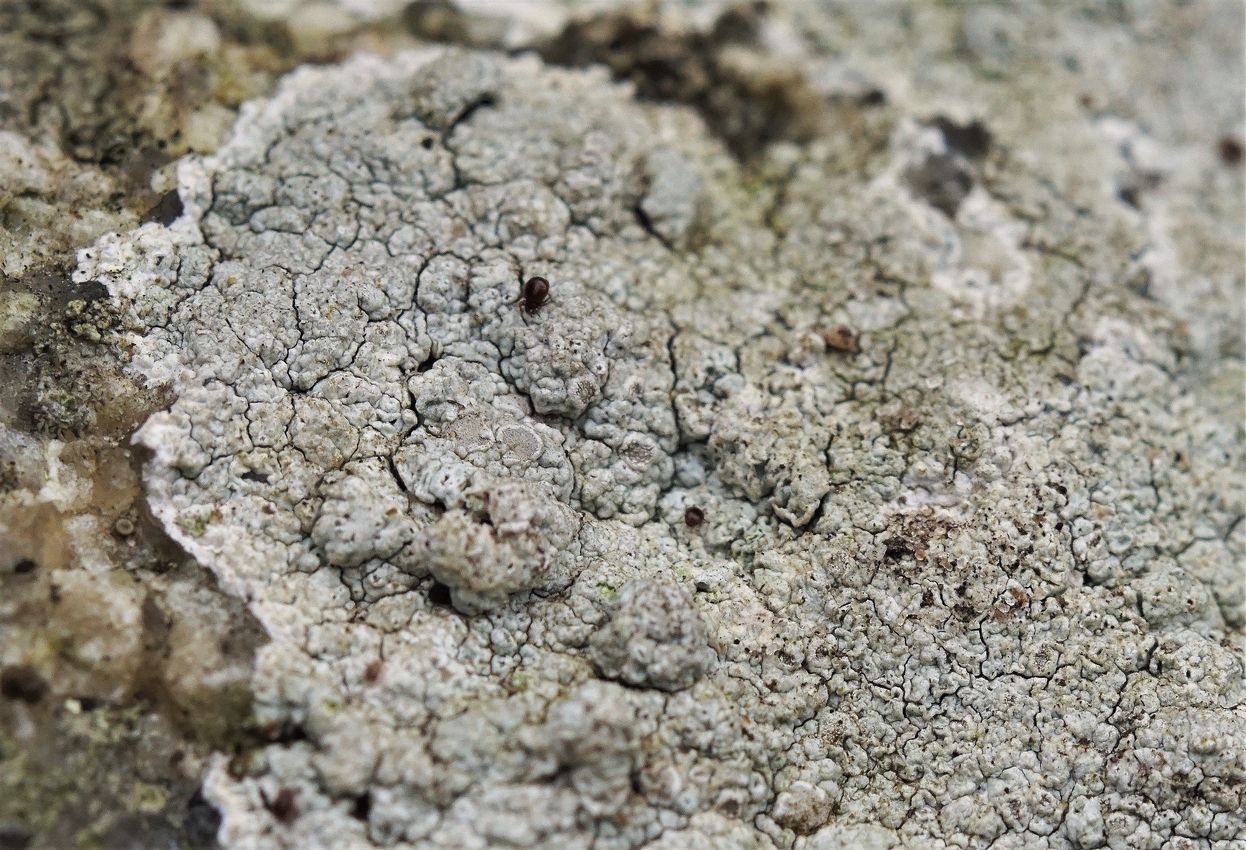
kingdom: Fungi
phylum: Ascomycota
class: Lecanoromycetes
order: Lecanorales
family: Lecanoraceae
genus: Glaucomaria
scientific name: Glaucomaria rupicola
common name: stengærde-kantskivelav
